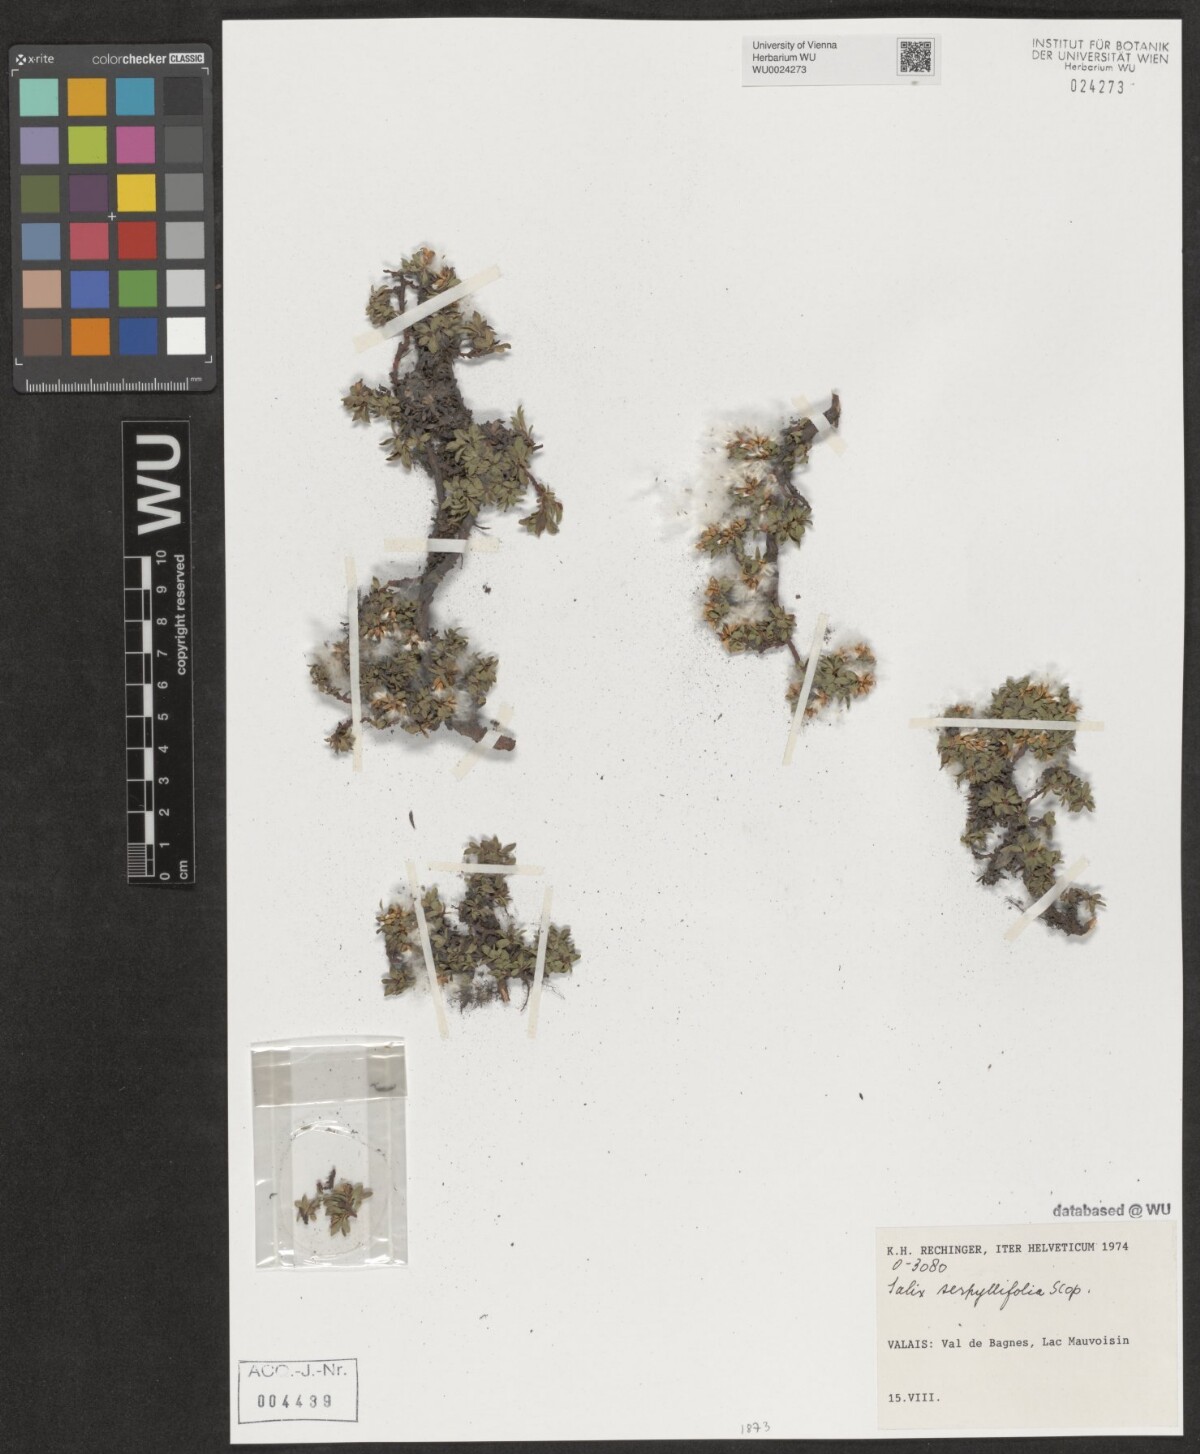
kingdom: Plantae
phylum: Tracheophyta
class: Magnoliopsida
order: Malpighiales
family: Salicaceae
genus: Salix
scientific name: Salix serpillifolia
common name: Thyme-leaf willow
